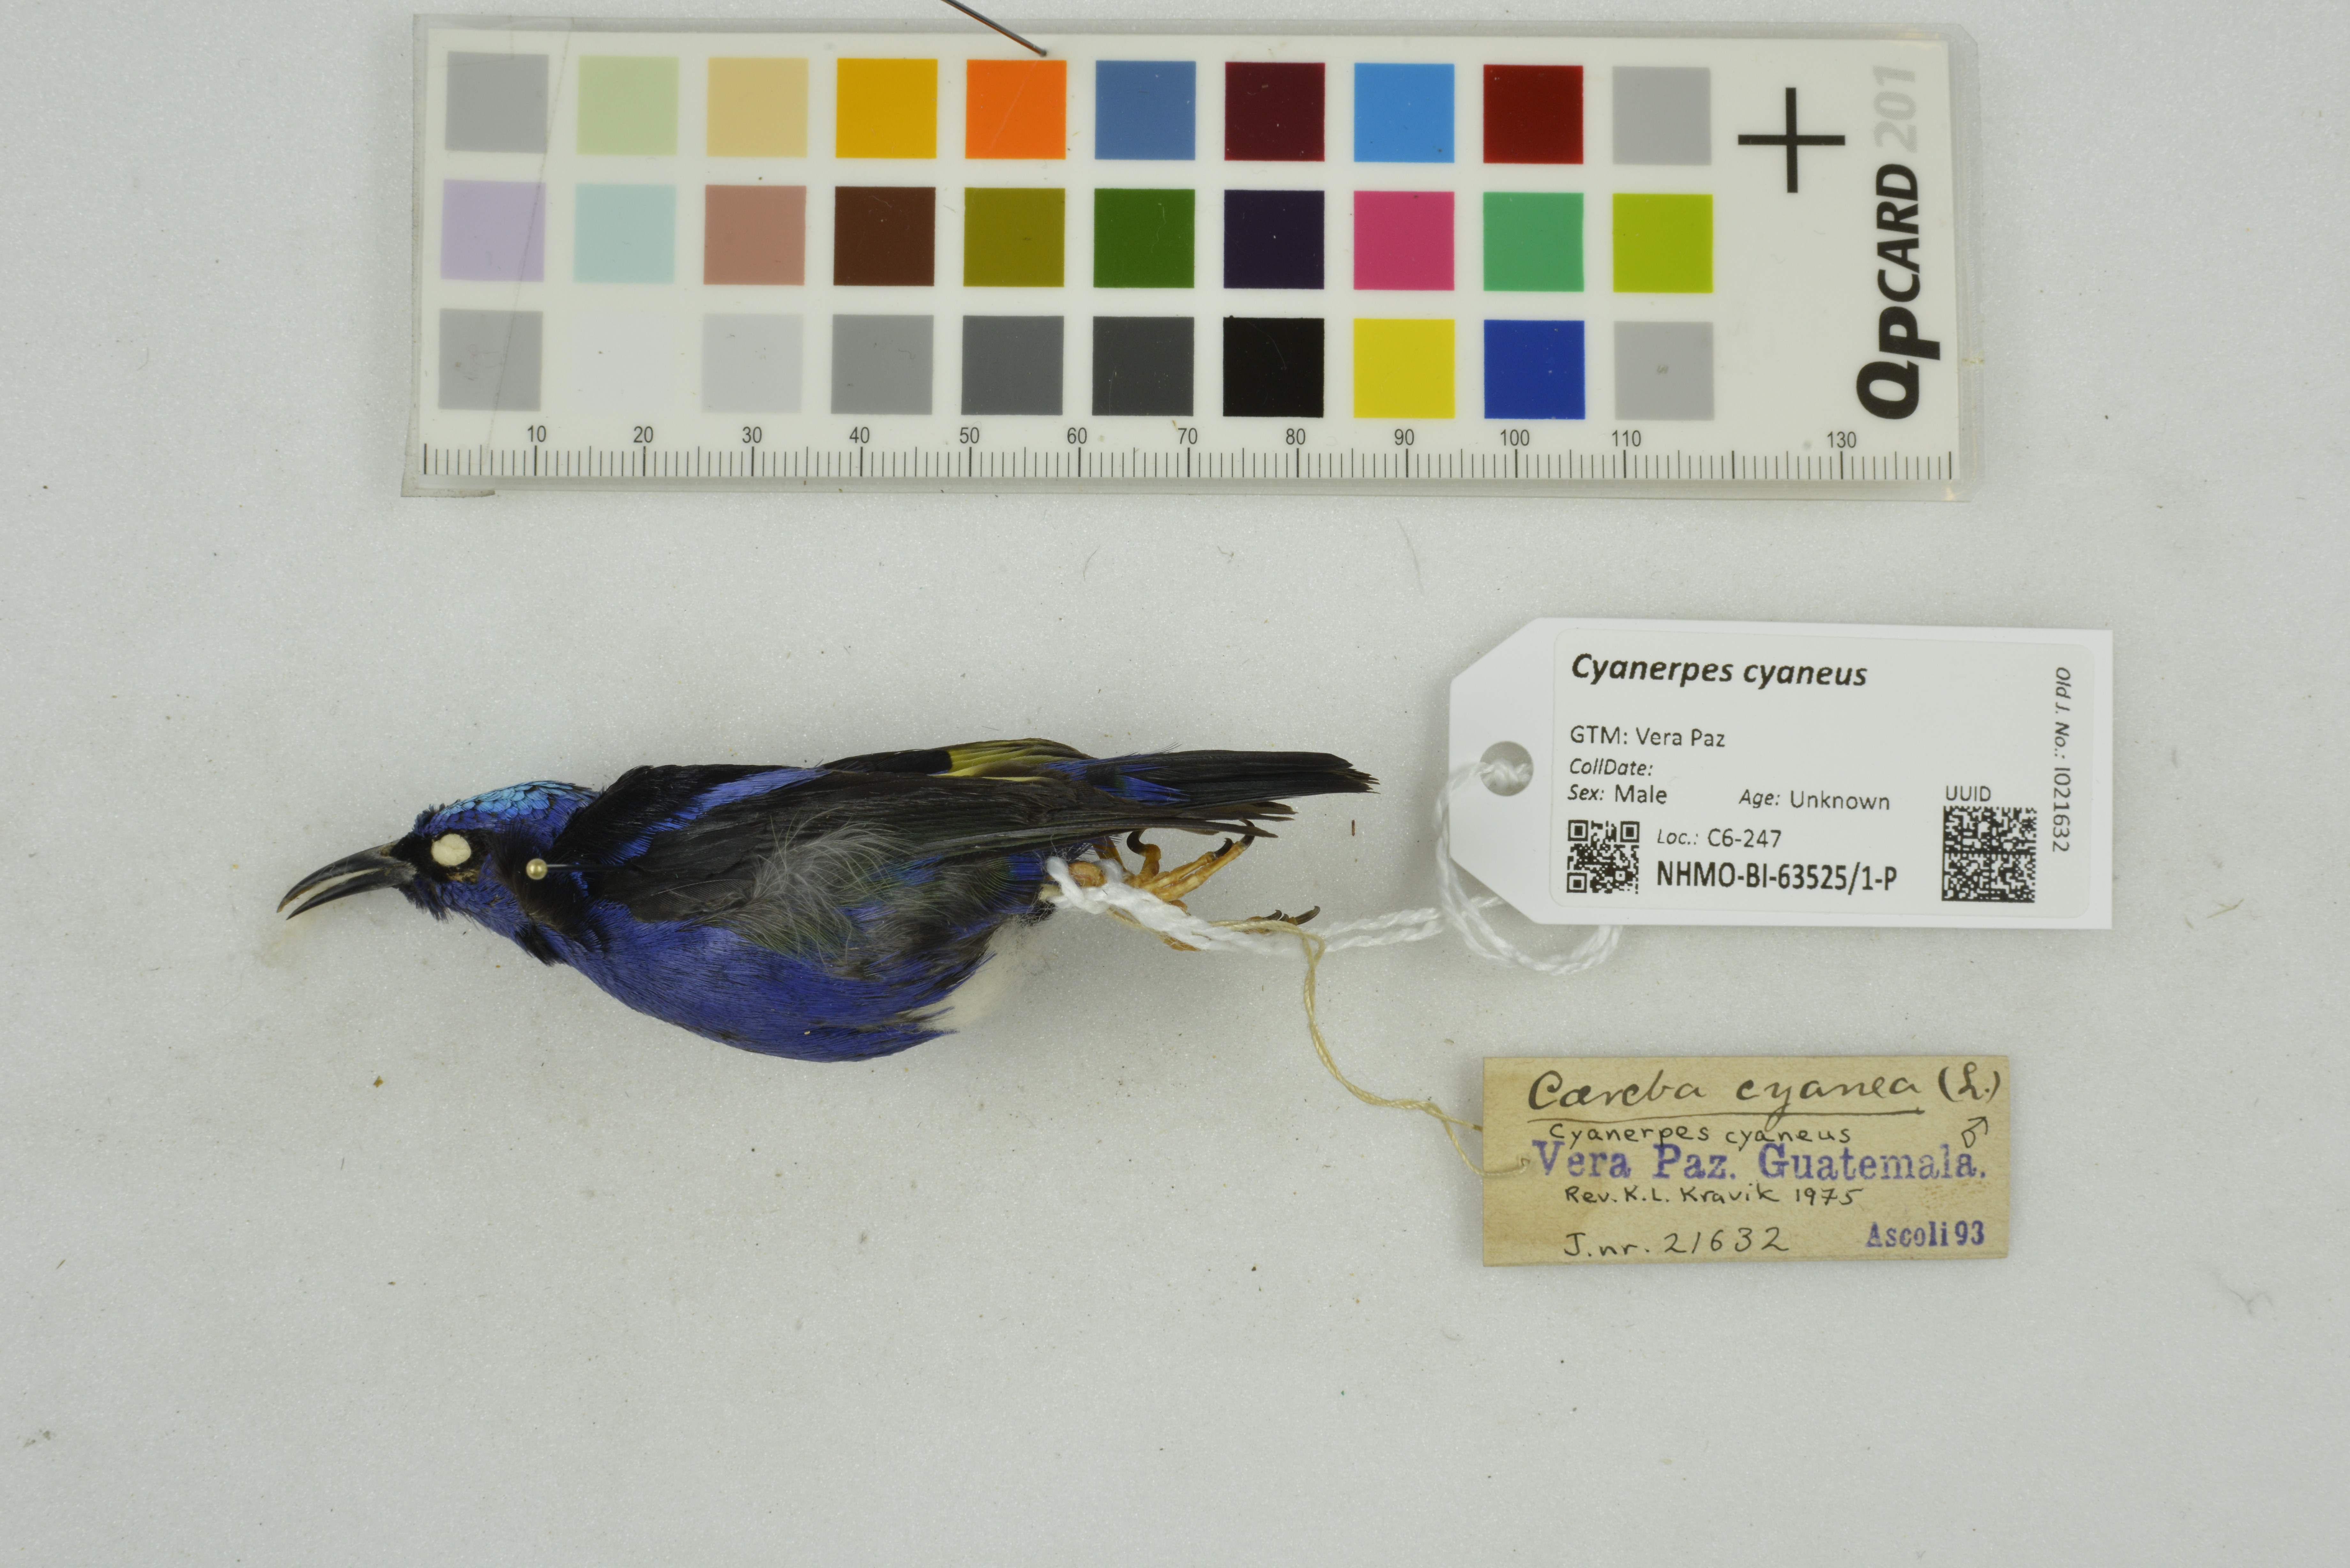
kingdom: Animalia
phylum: Chordata
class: Aves
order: Passeriformes
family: Thraupidae
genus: Cyanerpes
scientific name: Cyanerpes cyaneus
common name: Red-legged honeycreeper
